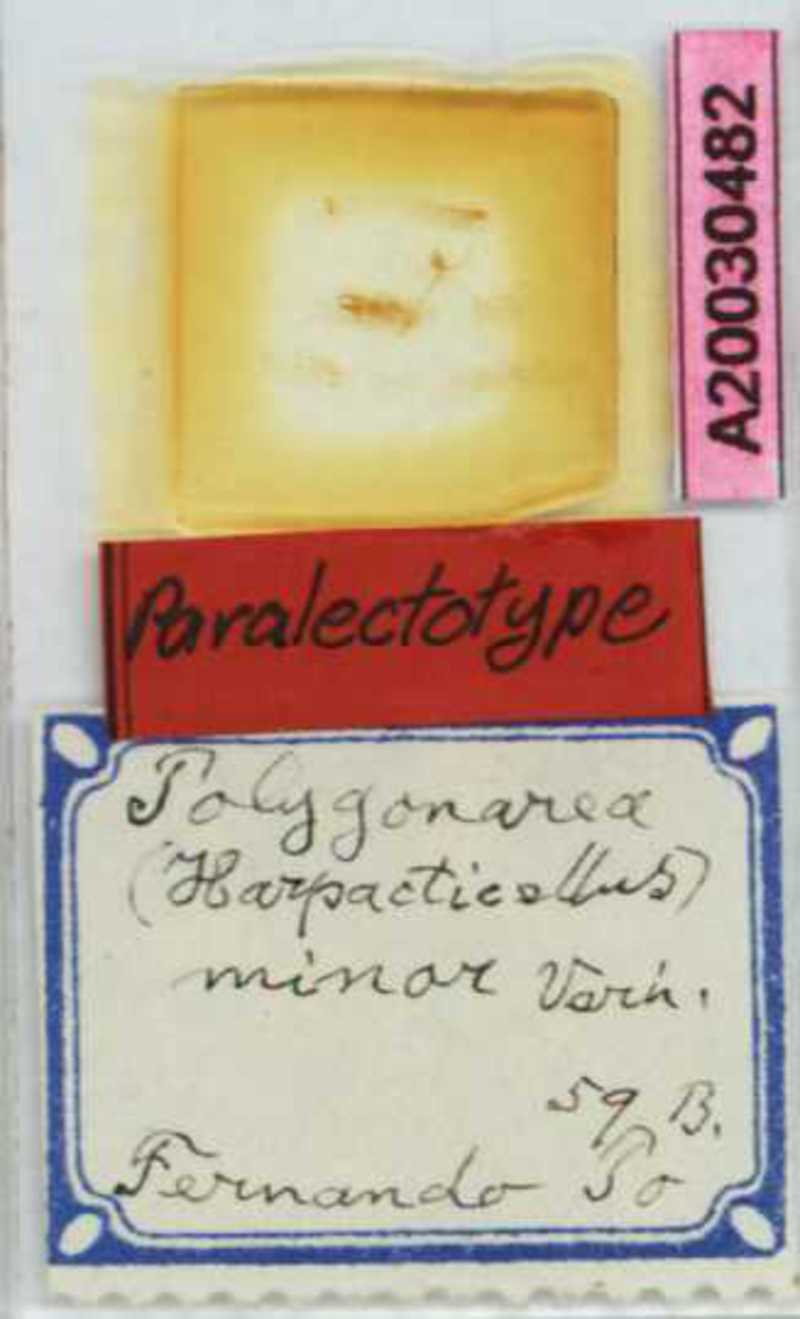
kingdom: Animalia
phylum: Arthropoda
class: Chilopoda
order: Geophilomorpha
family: Geophilidae
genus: Polygonarea
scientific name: Polygonarea
